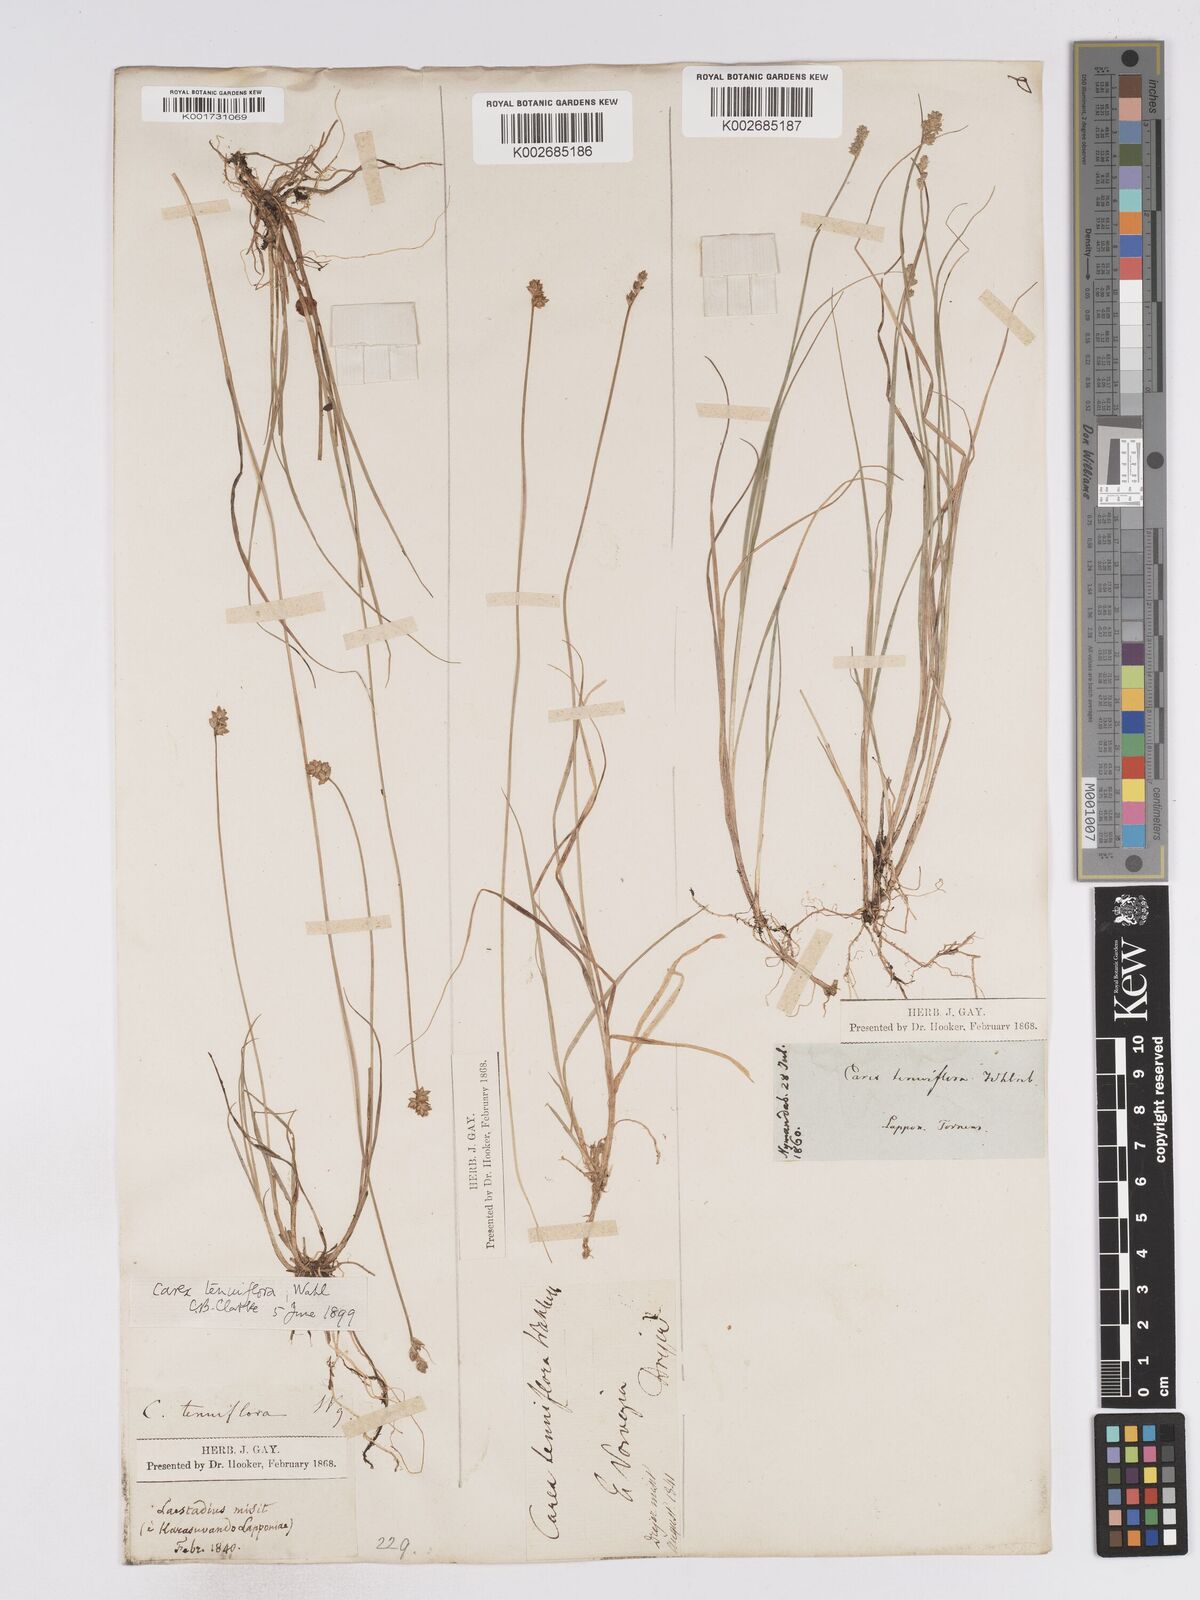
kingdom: Plantae
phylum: Tracheophyta
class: Liliopsida
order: Poales
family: Cyperaceae
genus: Carex
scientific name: Carex tenuiflora
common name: Sparse-flowered sedge
